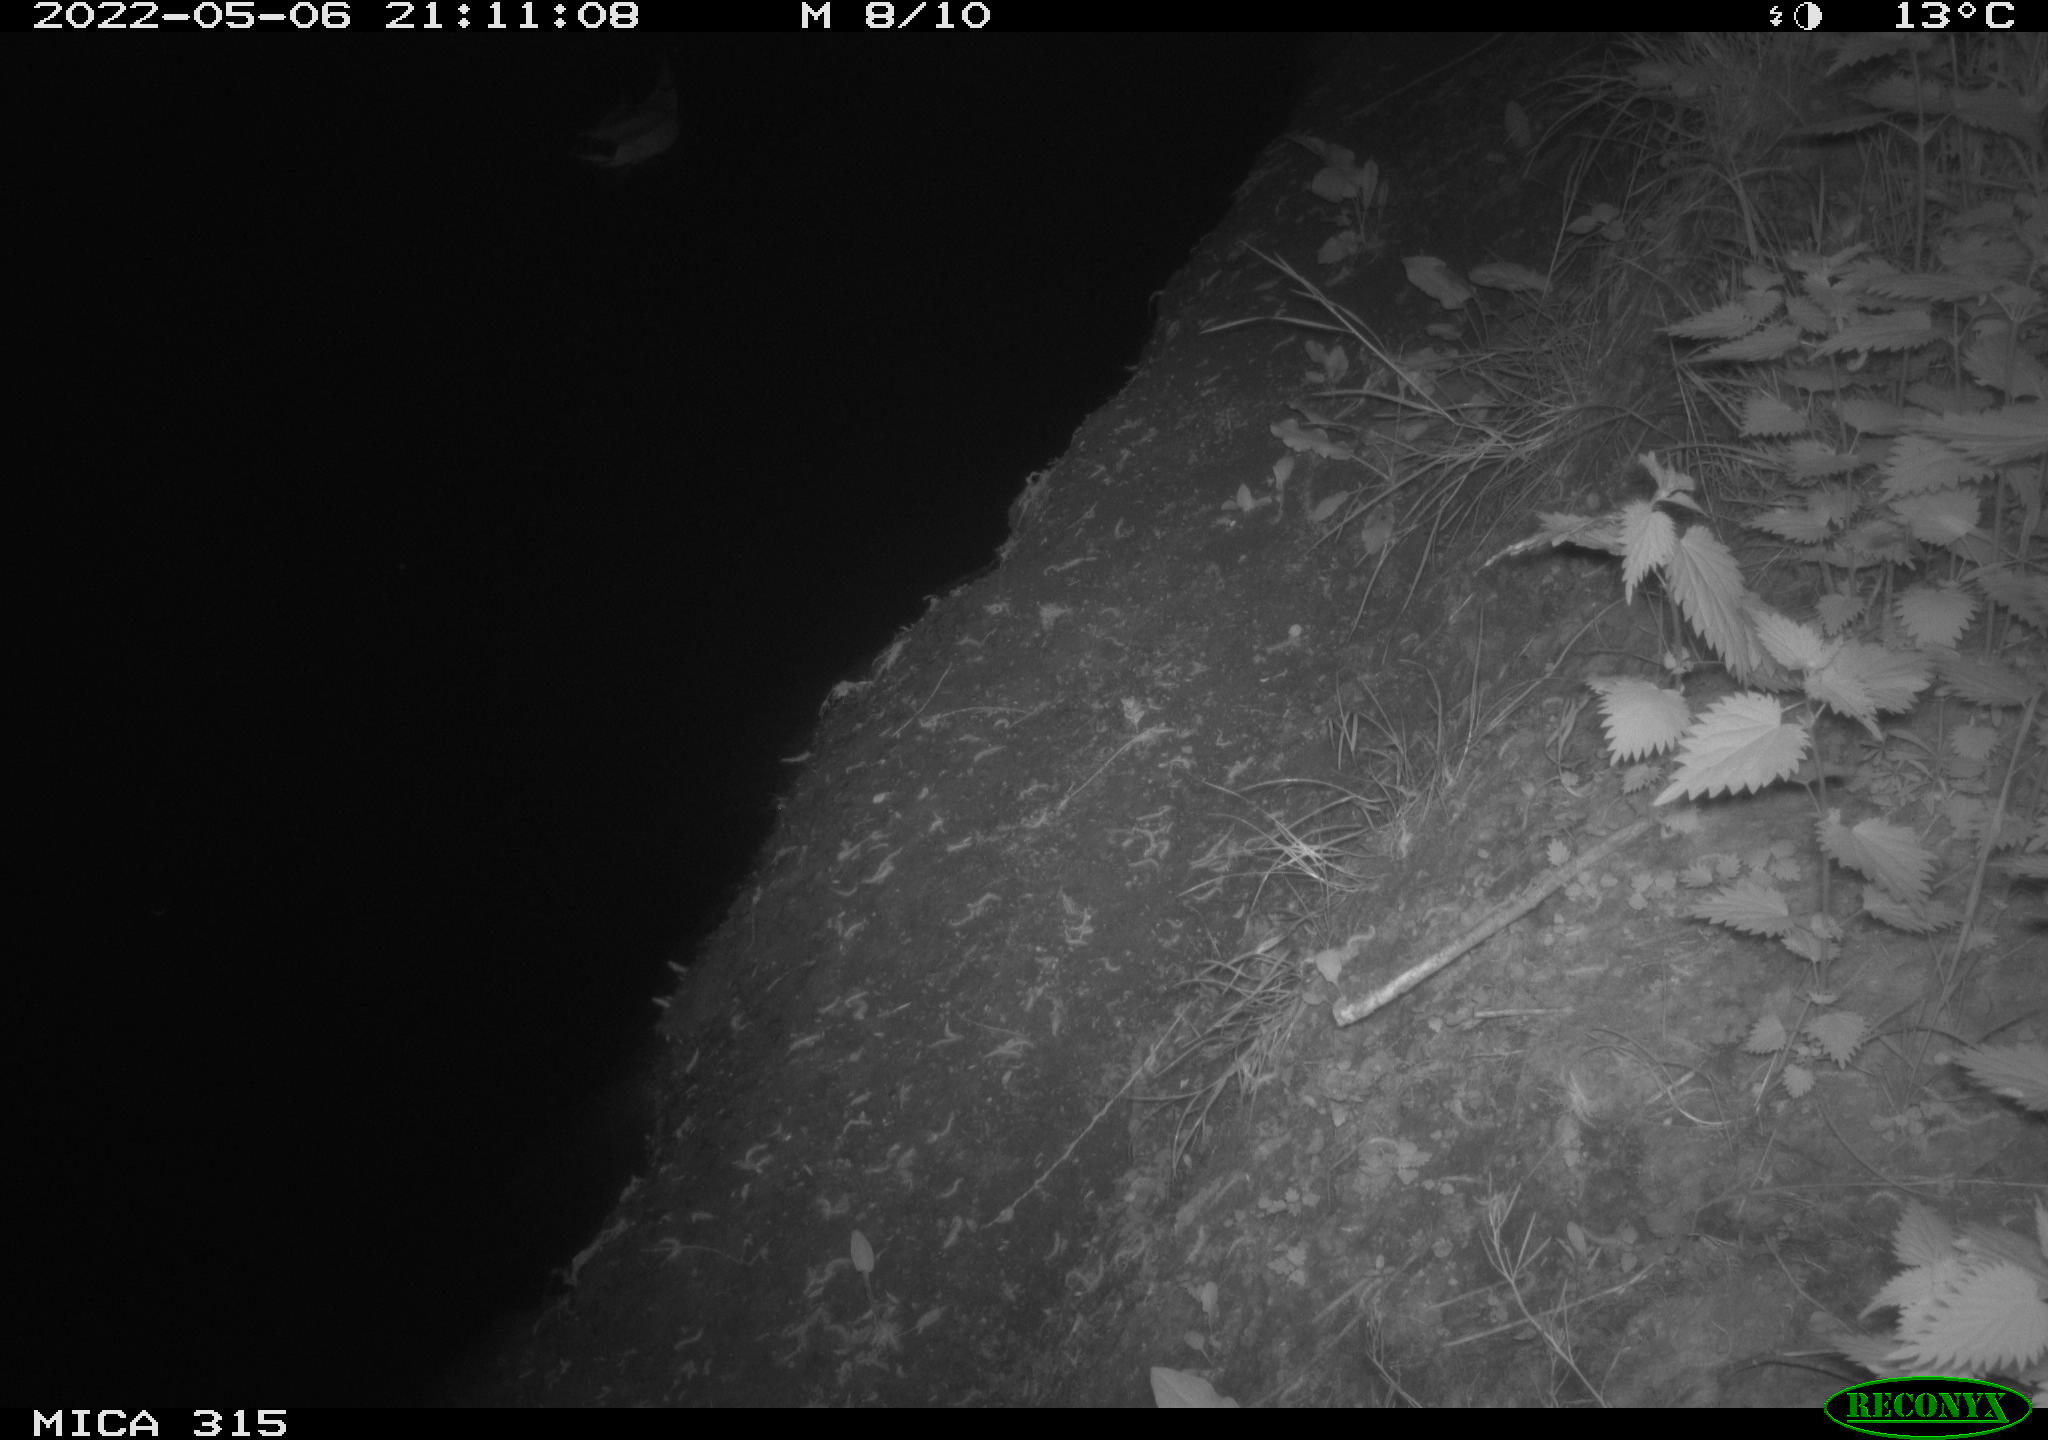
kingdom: Animalia
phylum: Chordata
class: Aves
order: Anseriformes
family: Anatidae
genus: Anas
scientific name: Anas platyrhynchos
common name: Mallard
